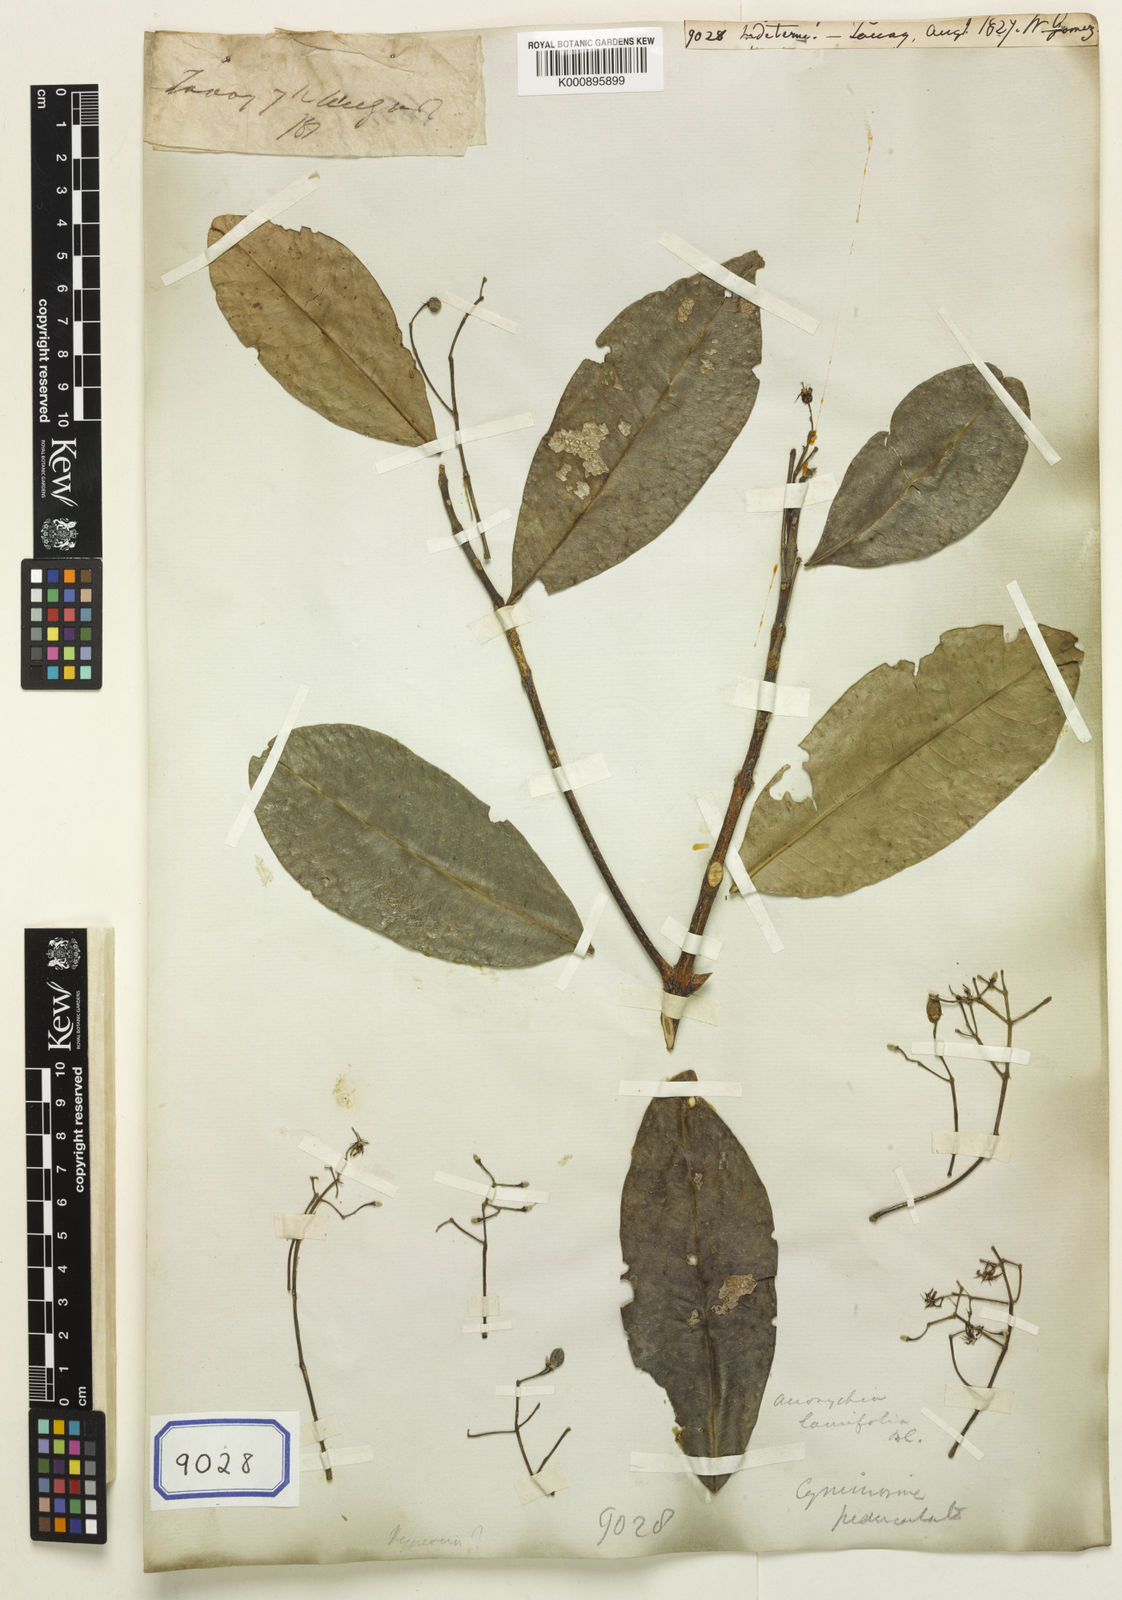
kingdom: Plantae
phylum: Tracheophyta
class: Magnoliopsida
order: Sapindales
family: Rutaceae
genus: Acronychia
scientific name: Acronychia pedunculata
